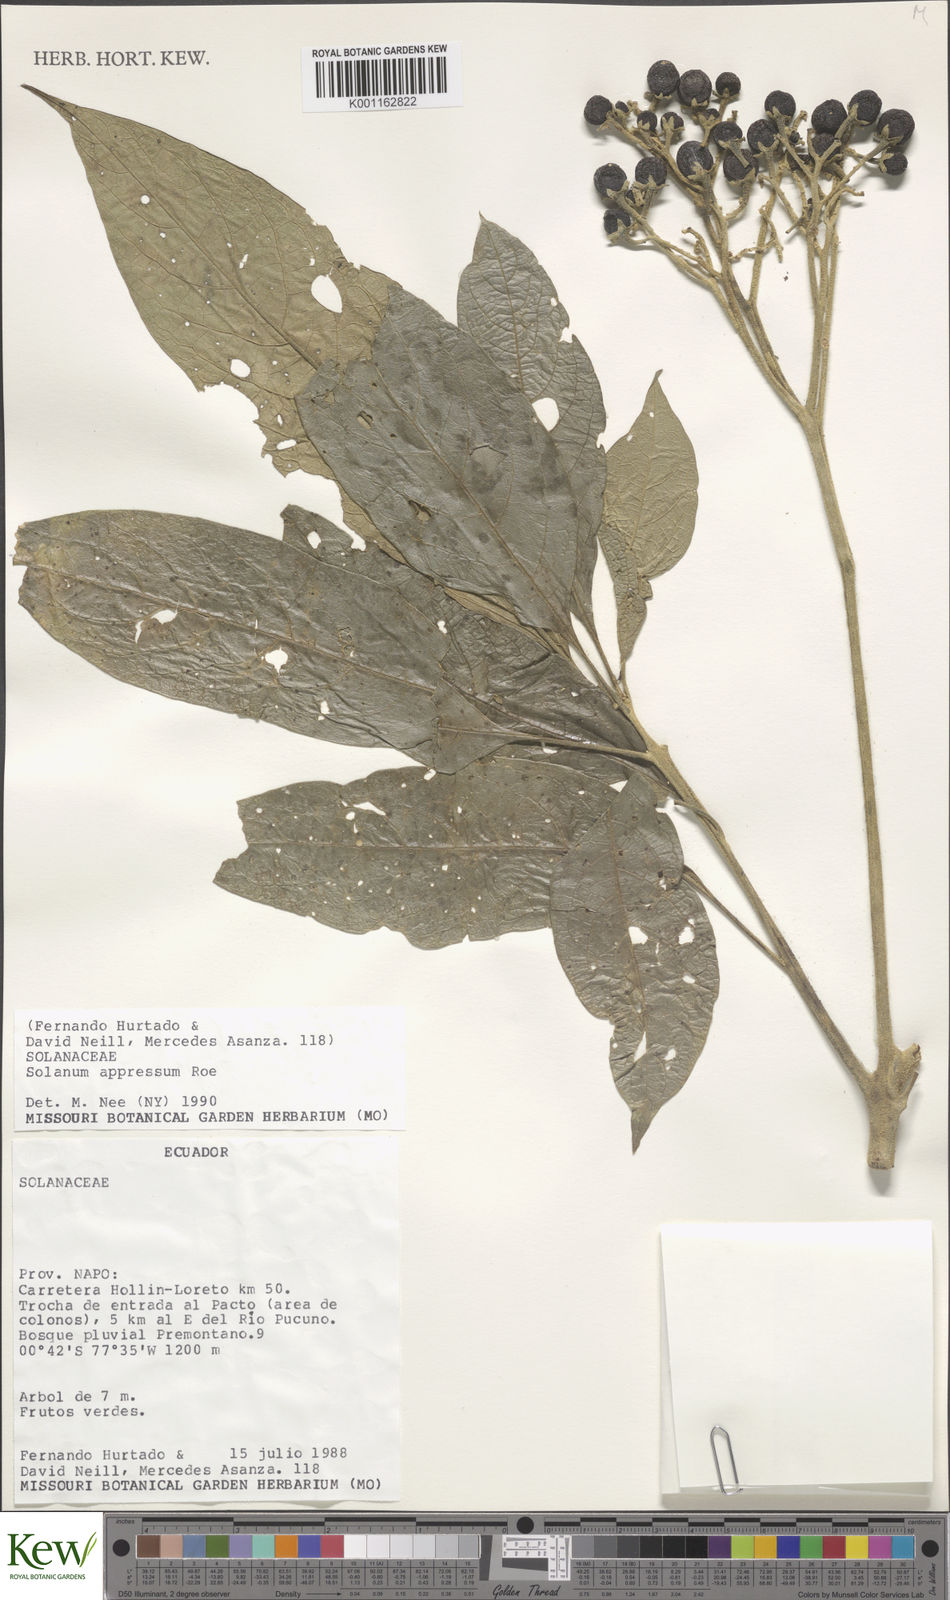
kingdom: Plantae
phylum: Tracheophyta
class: Magnoliopsida
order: Solanales
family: Solanaceae
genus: Solanum
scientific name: Solanum appressum
